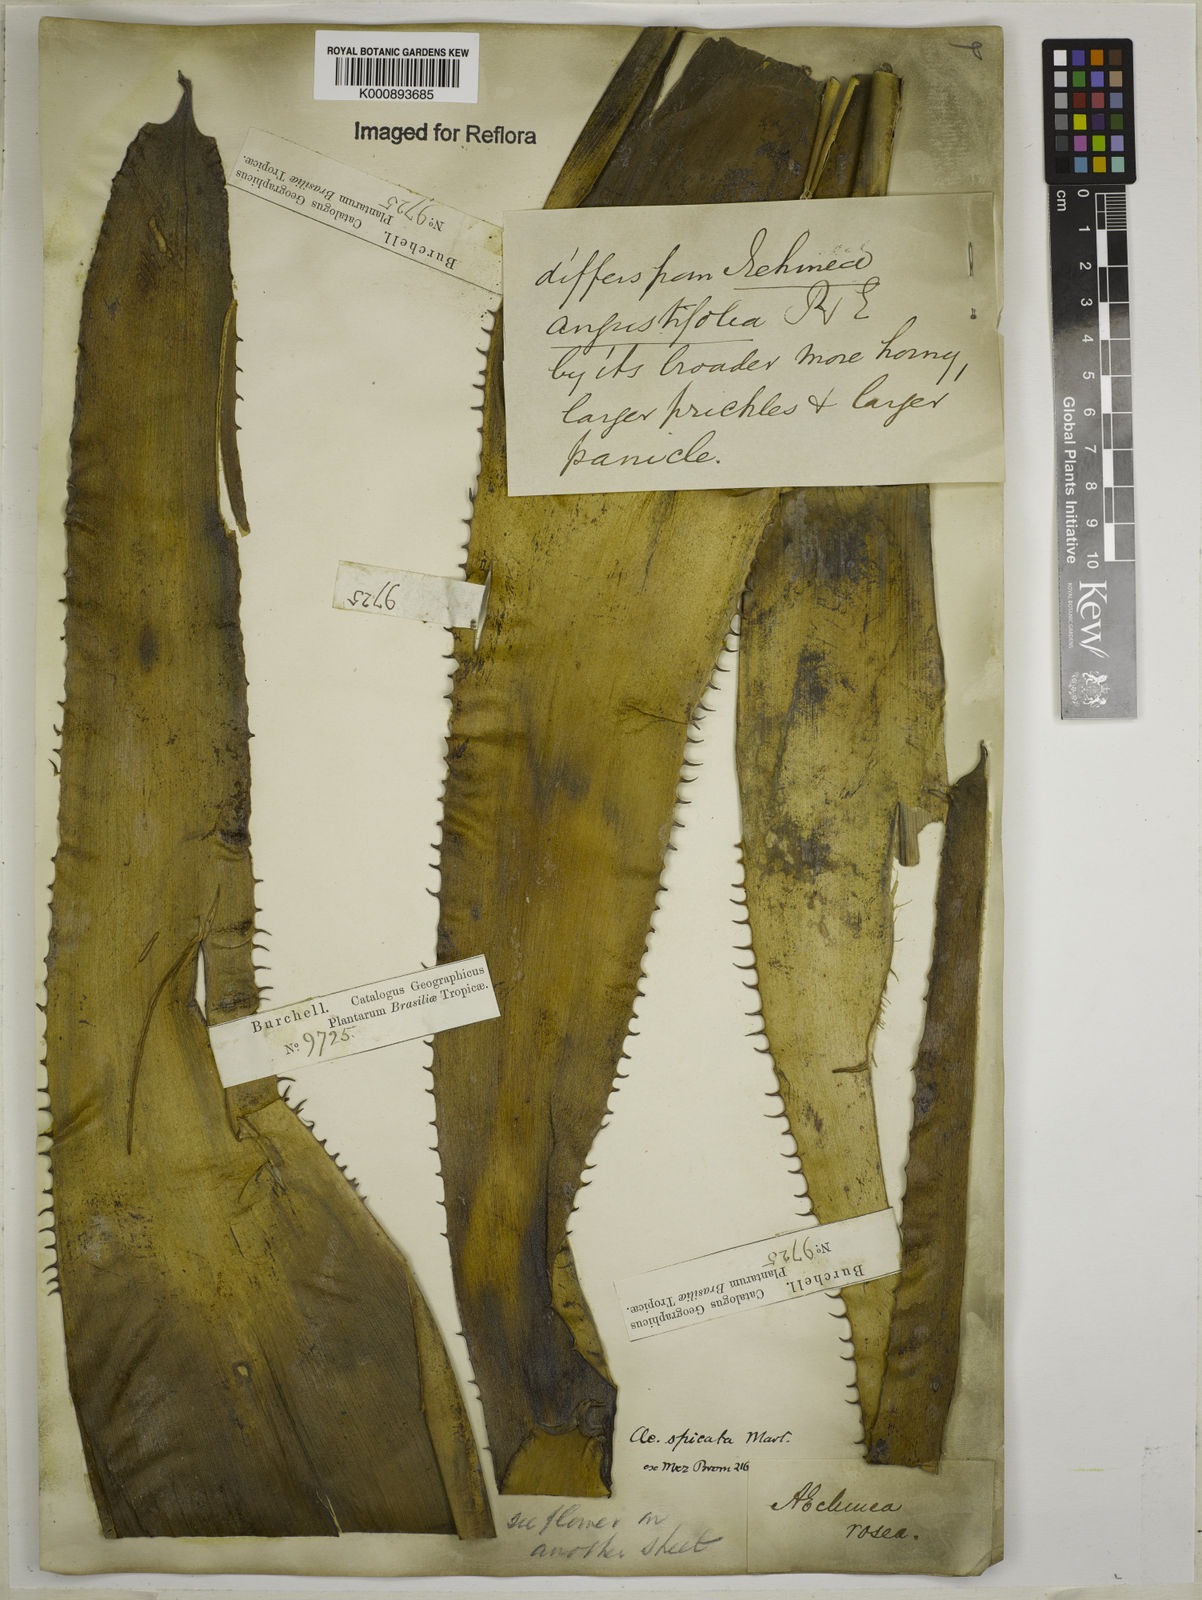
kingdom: Plantae
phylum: Tracheophyta
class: Liliopsida
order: Poales
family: Bromeliaceae
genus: Aechmea
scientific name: Aechmea mertensii
